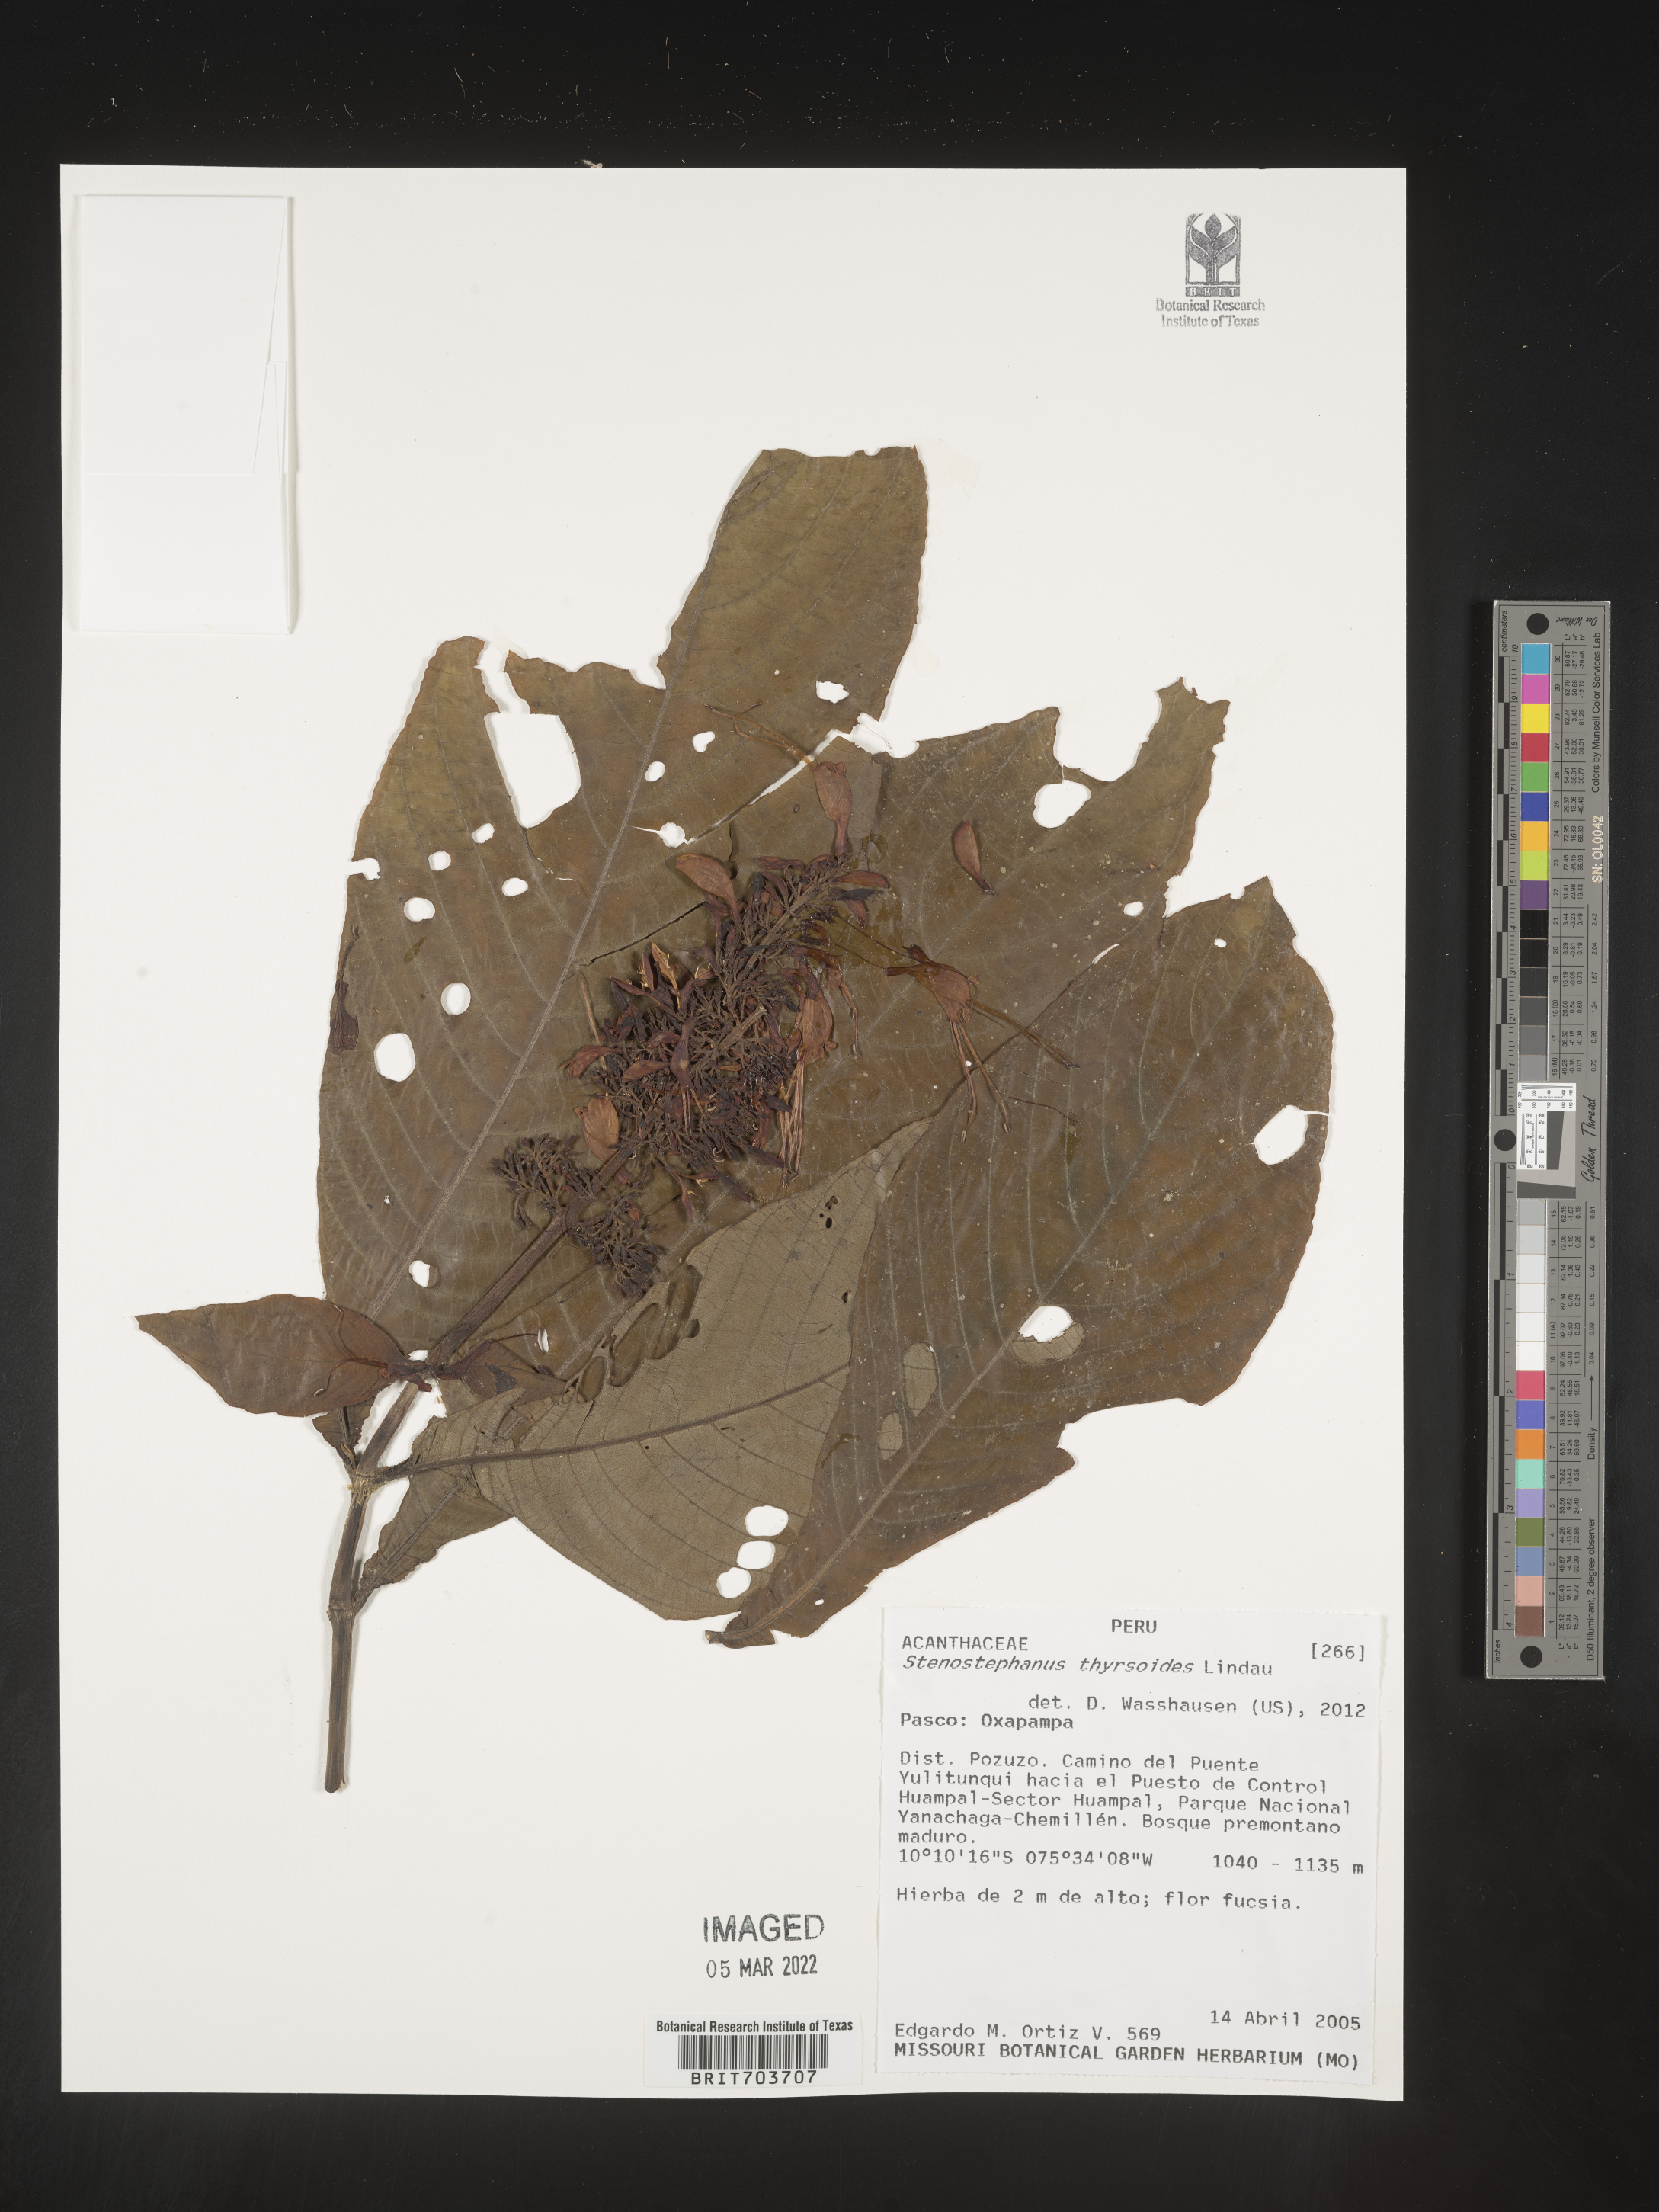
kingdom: Plantae
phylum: Tracheophyta
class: Magnoliopsida
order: Lamiales
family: Acanthaceae
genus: Stenostephanus
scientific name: Stenostephanus longistaminus
